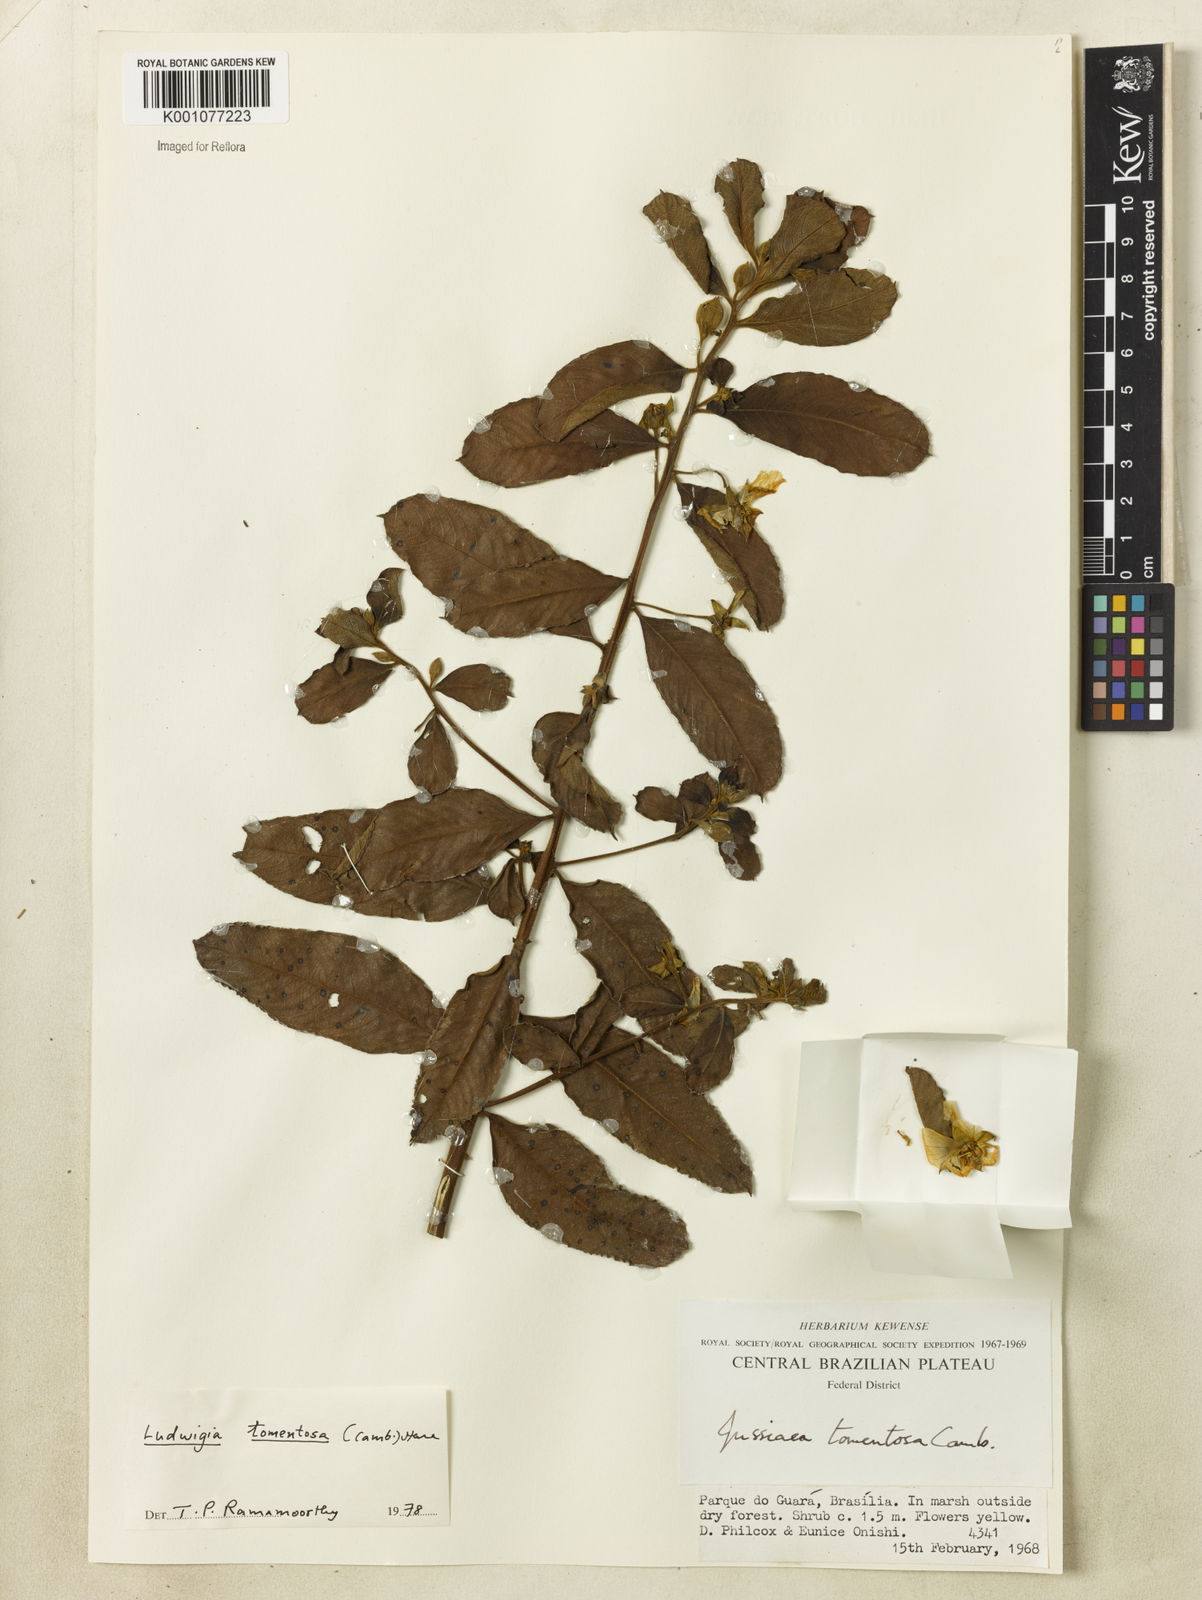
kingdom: Plantae
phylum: Tracheophyta
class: Magnoliopsida
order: Myrtales
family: Onagraceae
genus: Ludwigia
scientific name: Ludwigia tomentosa
